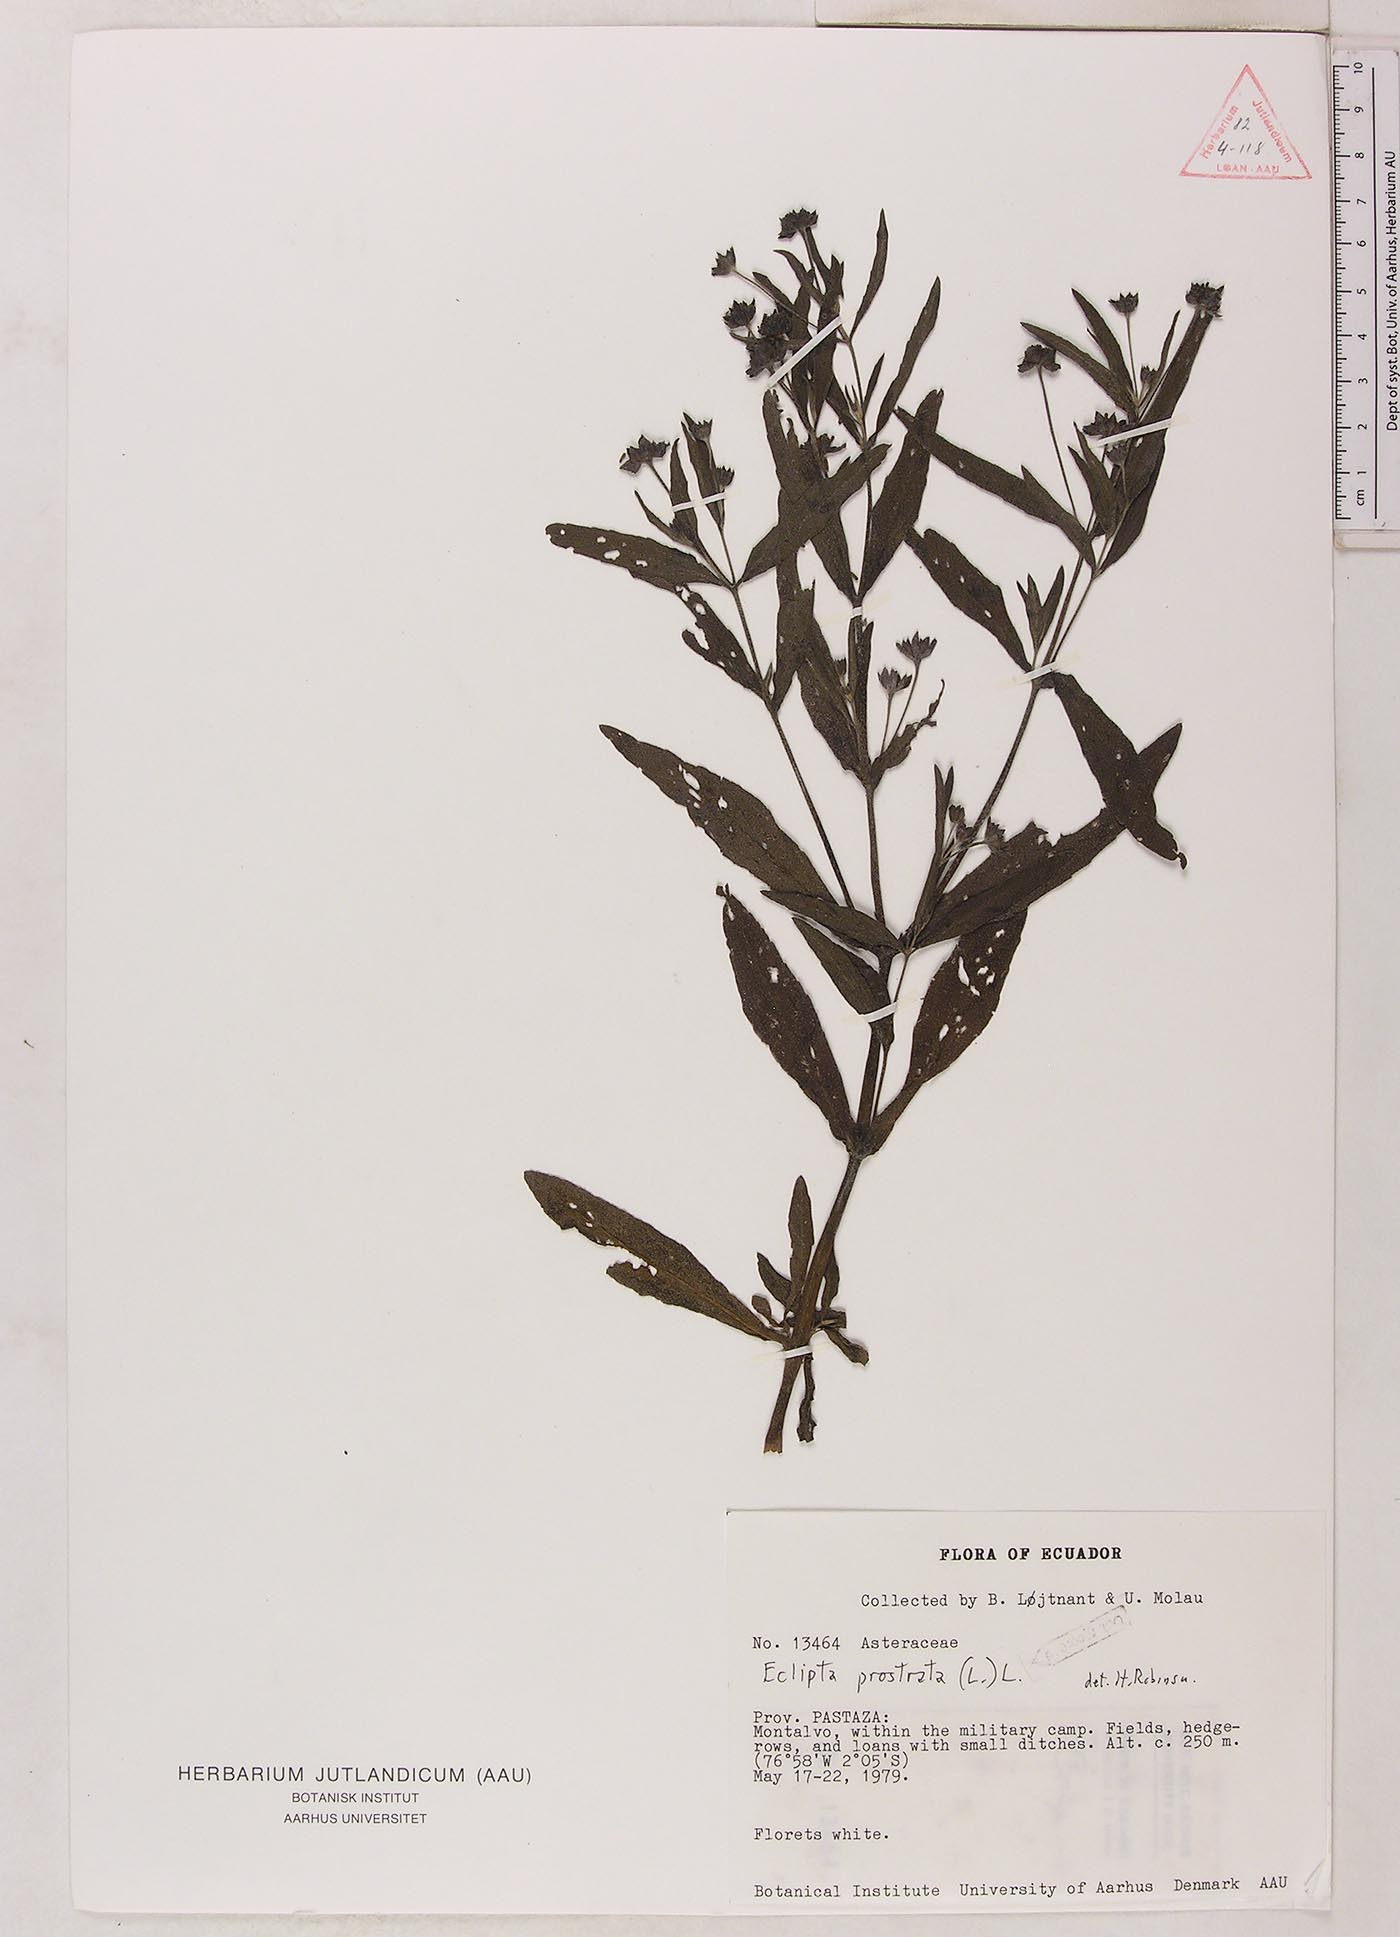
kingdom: Plantae
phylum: Tracheophyta
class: Magnoliopsida
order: Asterales
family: Asteraceae
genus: Eclipta
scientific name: Eclipta prostrata
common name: False daisy
